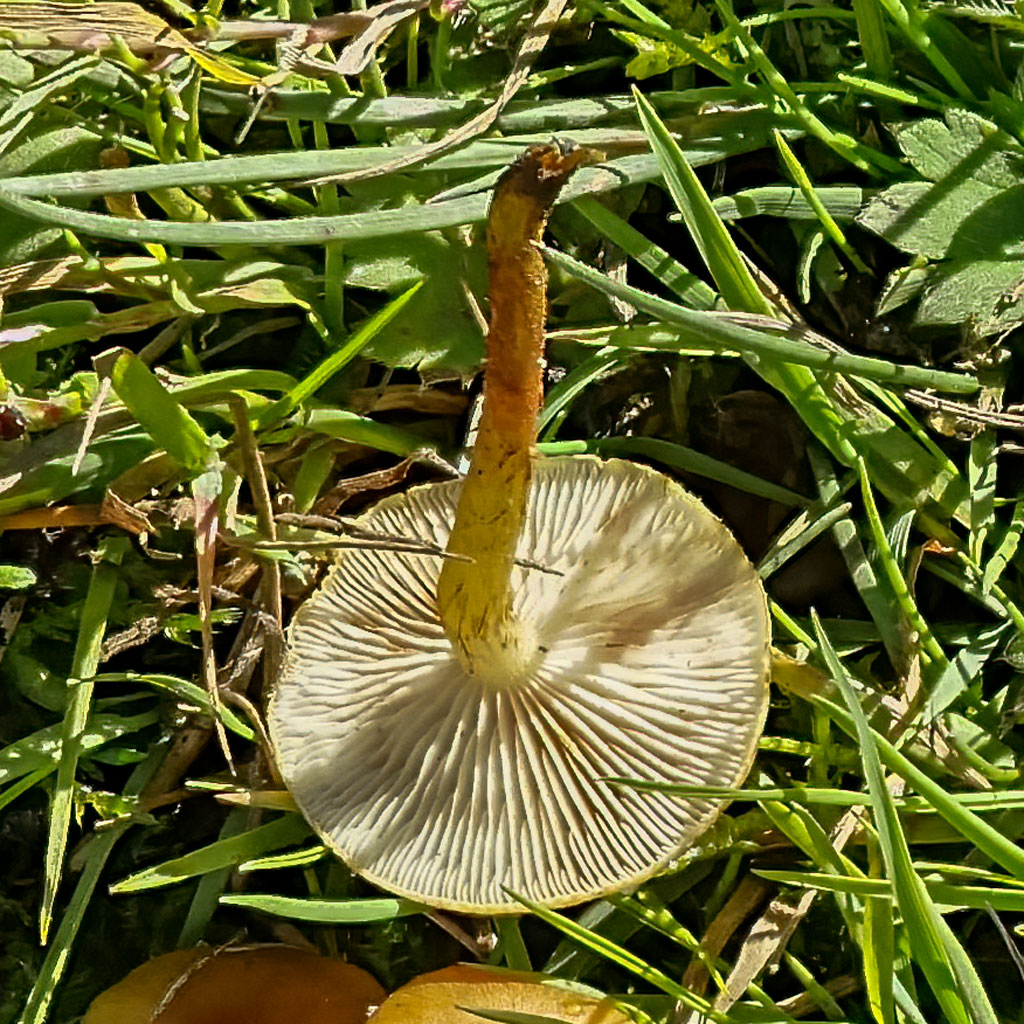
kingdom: Fungi
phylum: Basidiomycota
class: Agaricomycetes
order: Agaricales
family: Strophariaceae
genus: Pholiota
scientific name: Pholiota conissans
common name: pile-skælhat
